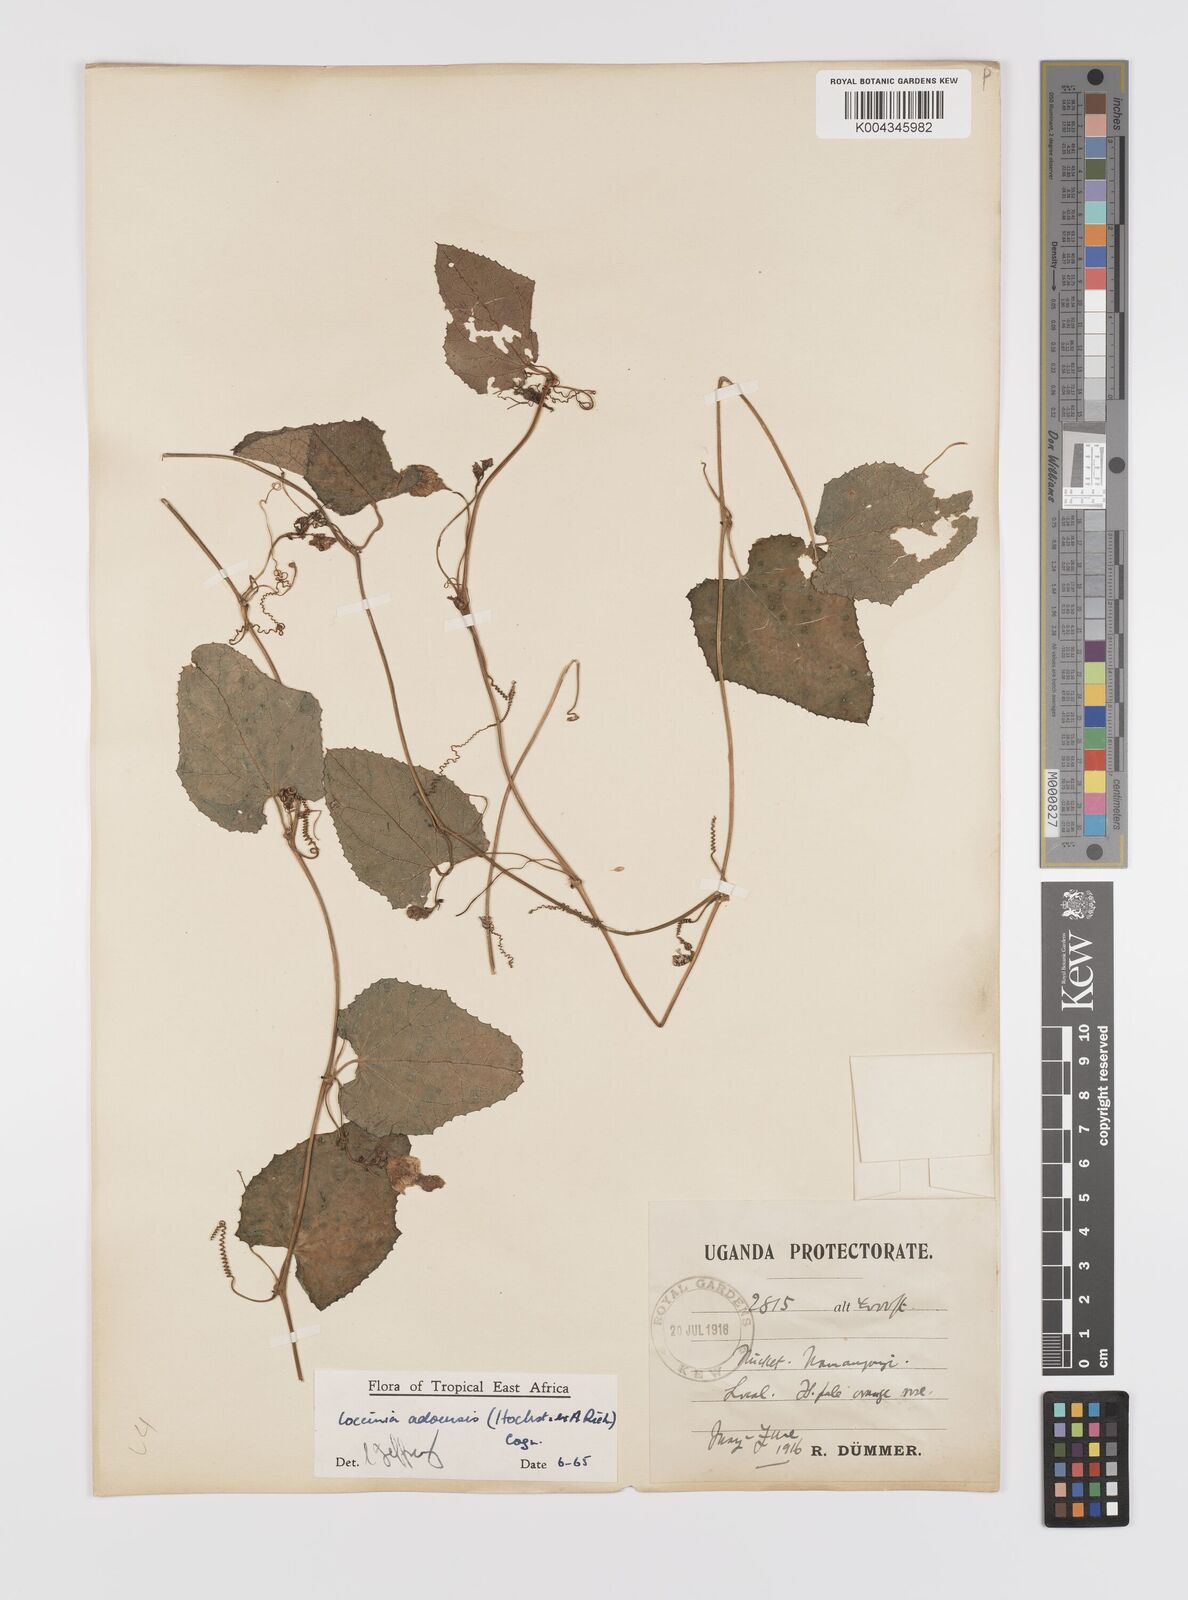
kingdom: Plantae
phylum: Tracheophyta
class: Magnoliopsida
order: Cucurbitales
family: Cucurbitaceae
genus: Coccinia
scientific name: Coccinia adoensis
